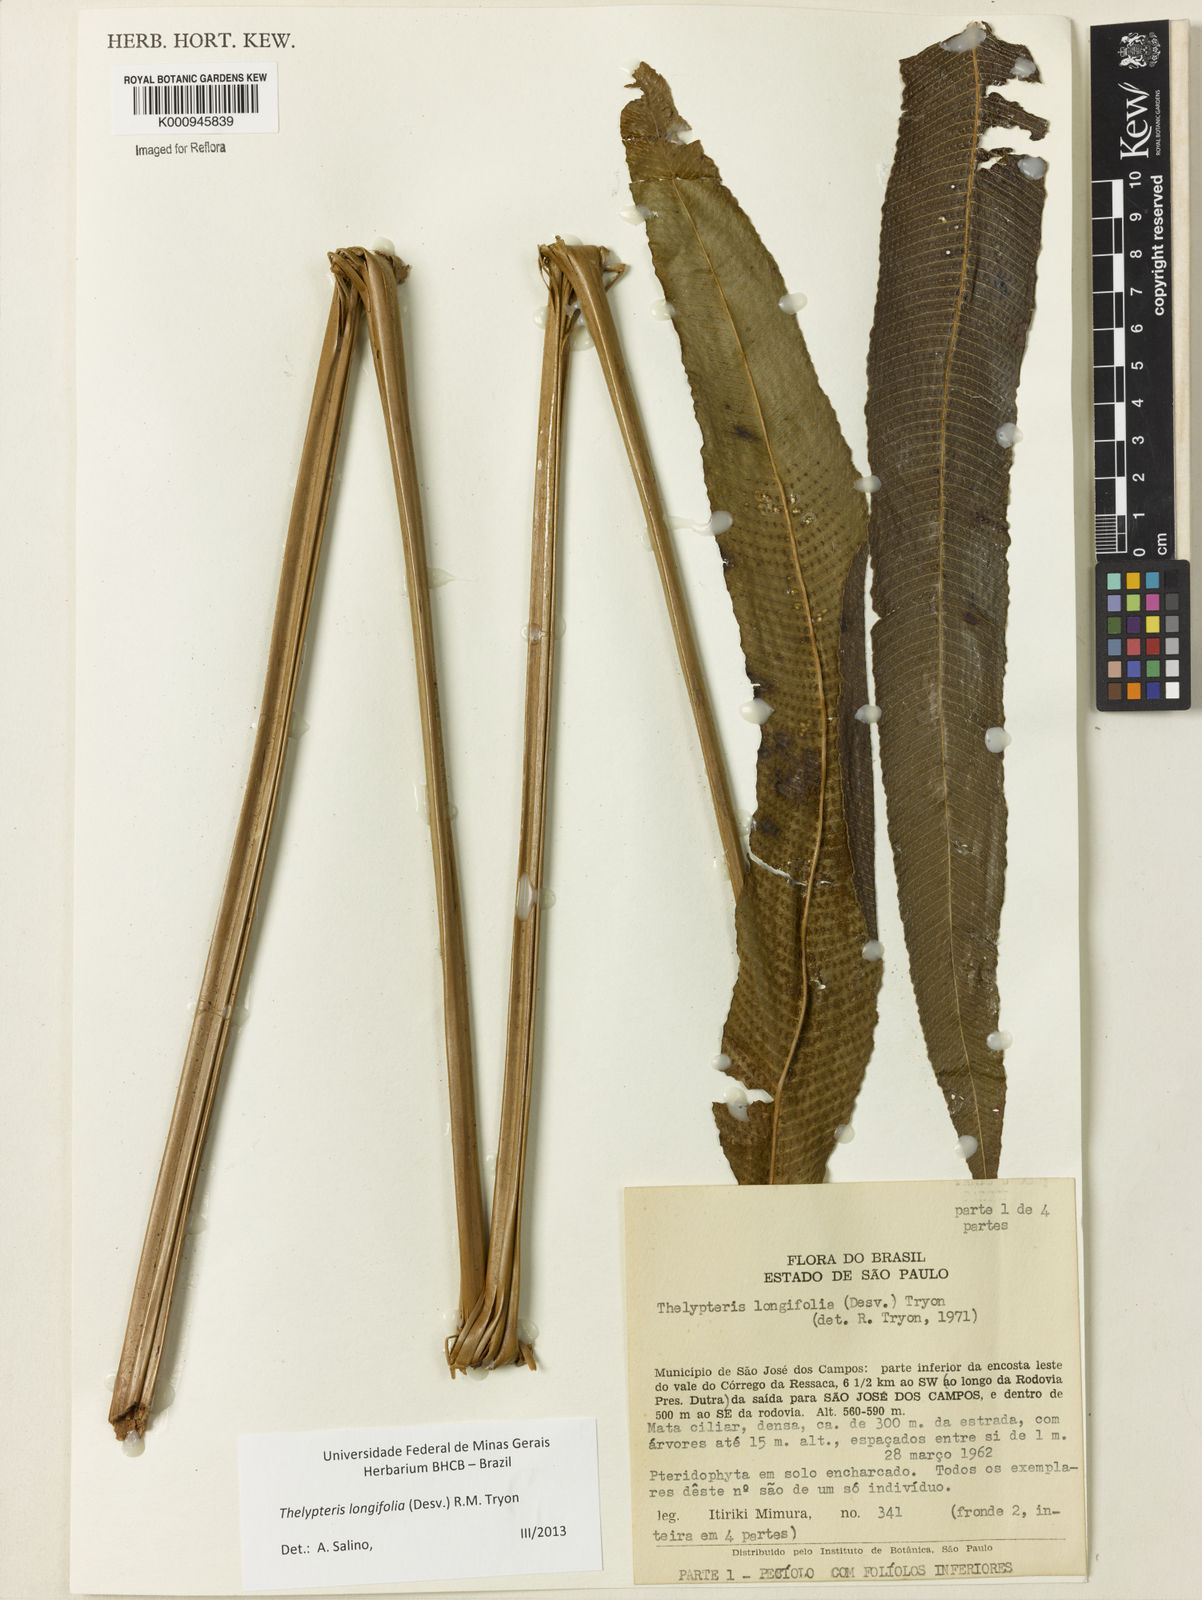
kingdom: Plantae
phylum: Tracheophyta
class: Polypodiopsida
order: Polypodiales
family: Thelypteridaceae
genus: Meniscium
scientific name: Meniscium longifolium
